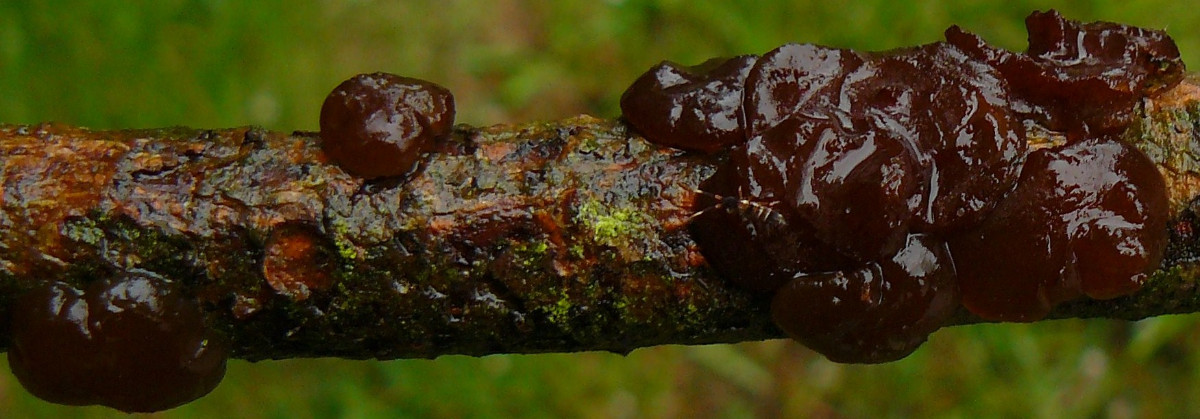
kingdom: Fungi
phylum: Basidiomycota
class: Agaricomycetes
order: Auriculariales
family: Auriculariaceae
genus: Exidia
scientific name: Exidia saccharina
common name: kandis-bævretop
